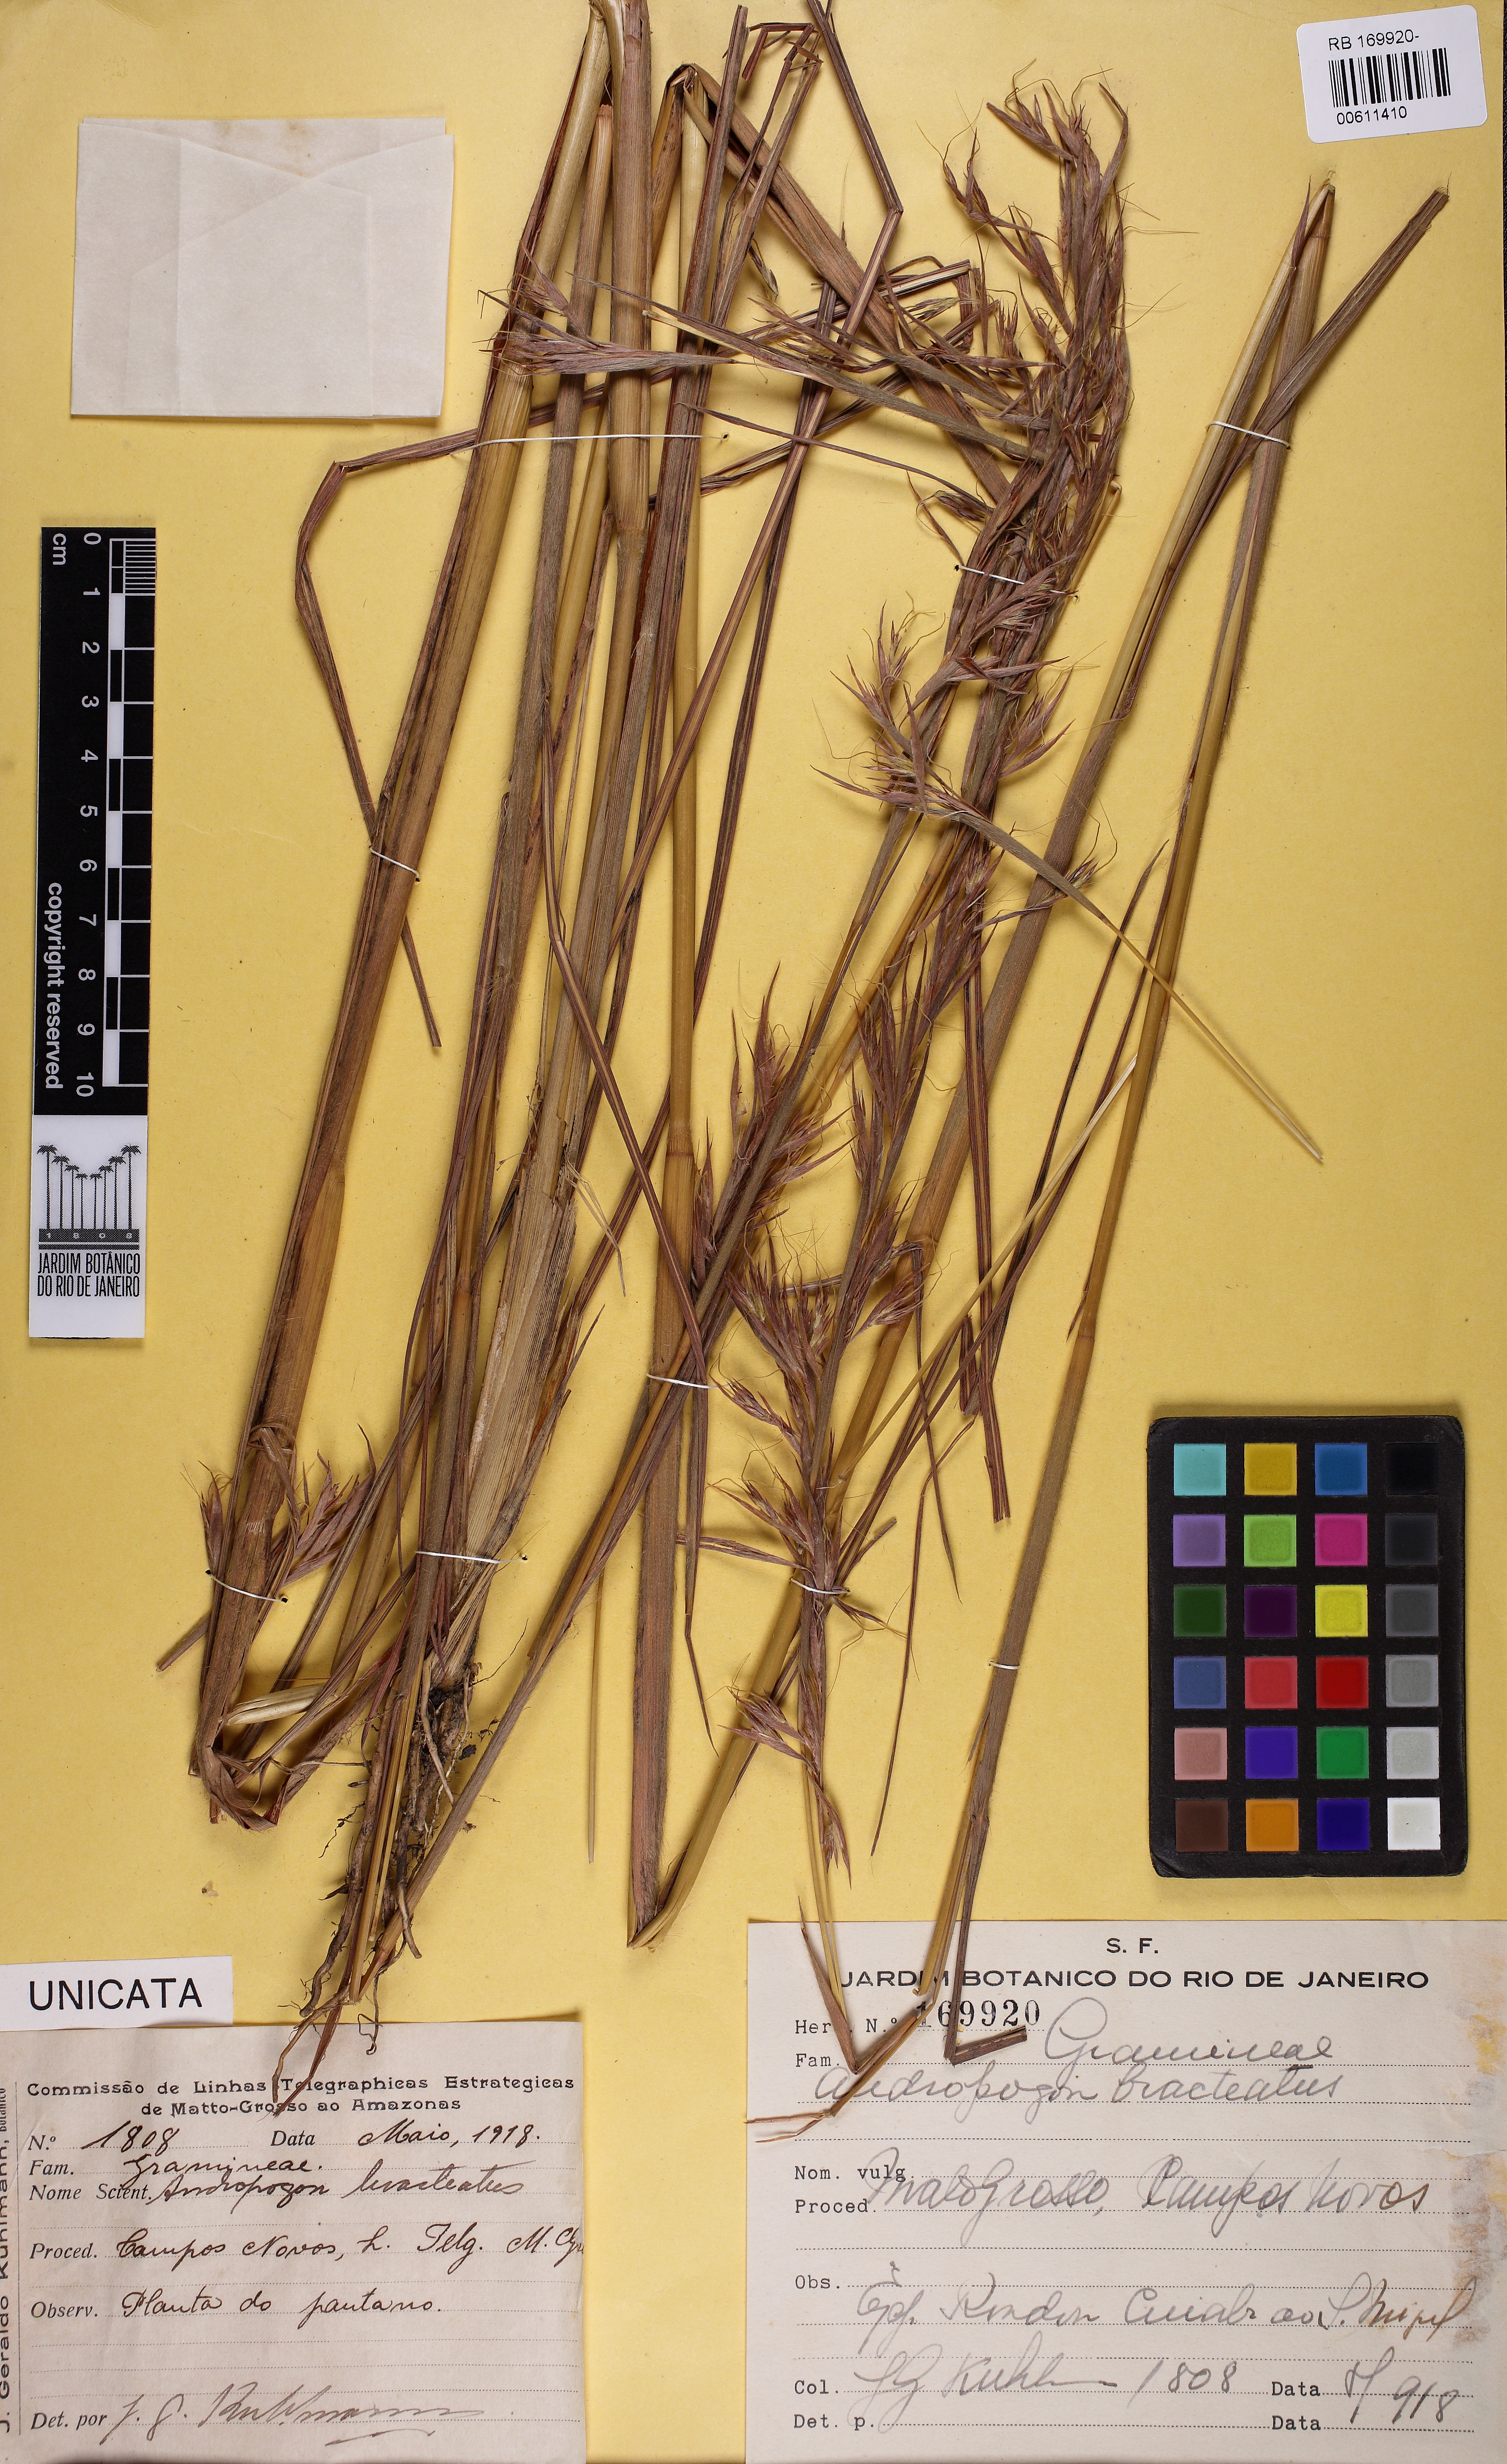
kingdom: Plantae
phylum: Tracheophyta
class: Liliopsida
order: Poales
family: Poaceae
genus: Hyparrhenia
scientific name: Hyparrhenia bracteata
